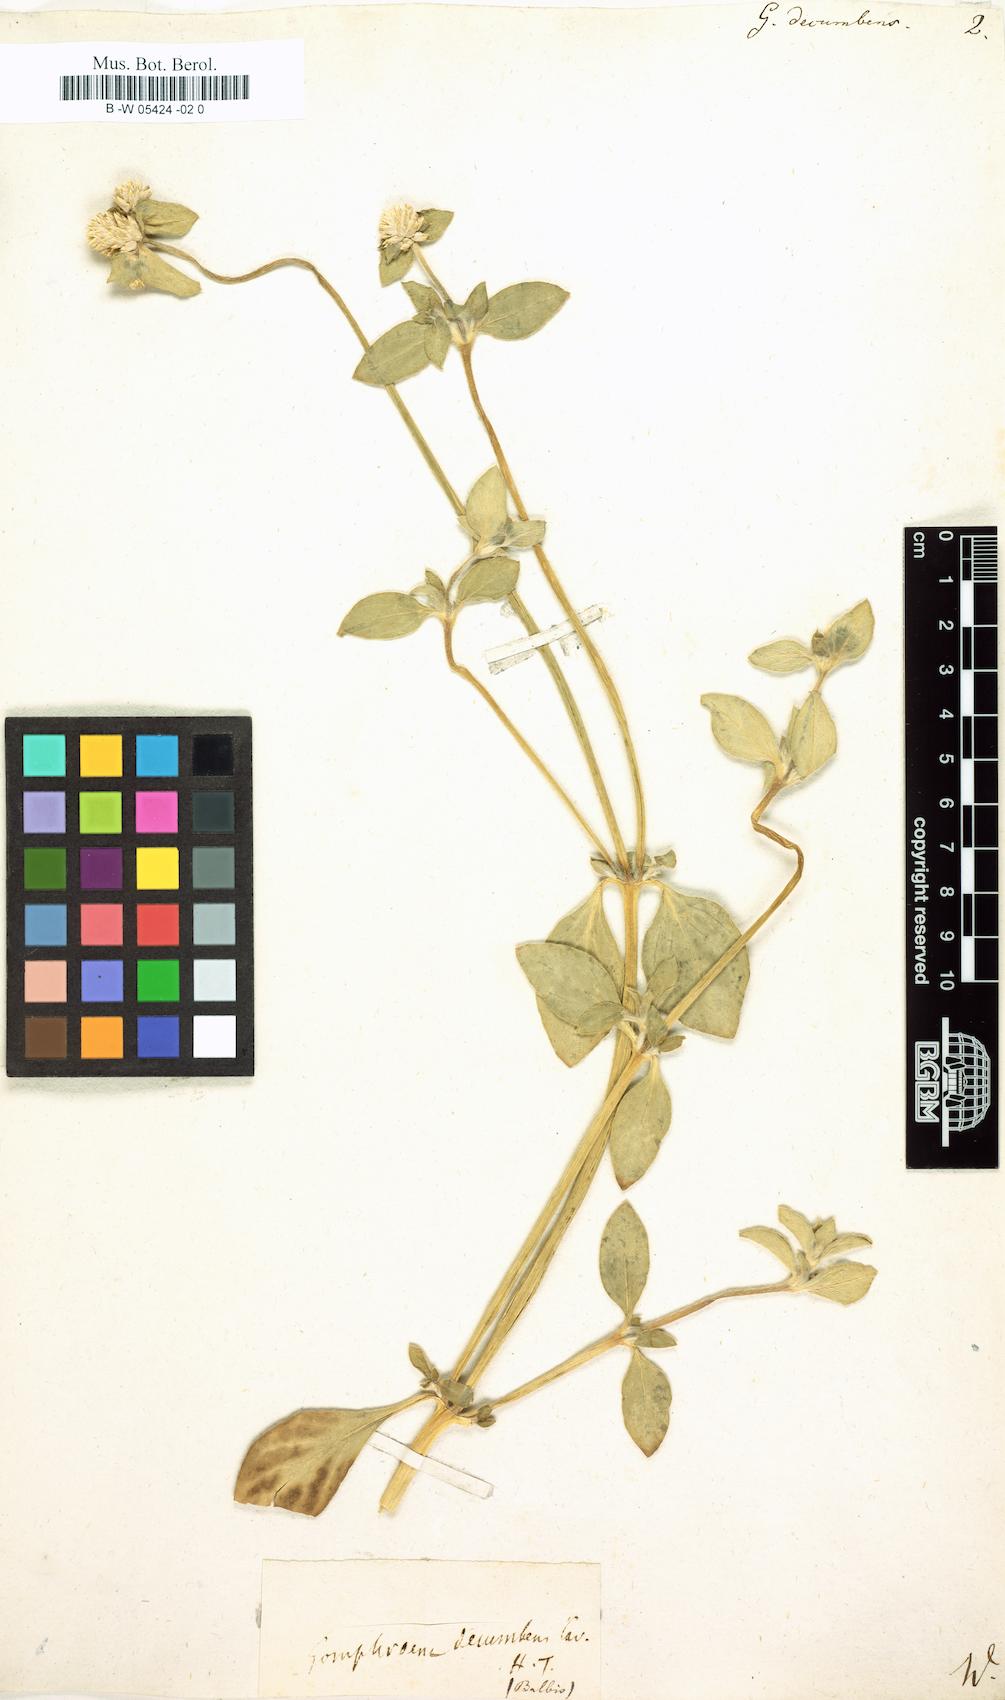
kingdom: Plantae
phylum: Tracheophyta
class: Magnoliopsida
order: Caryophyllales
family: Amaranthaceae
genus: Gomphrena
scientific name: Gomphrena
